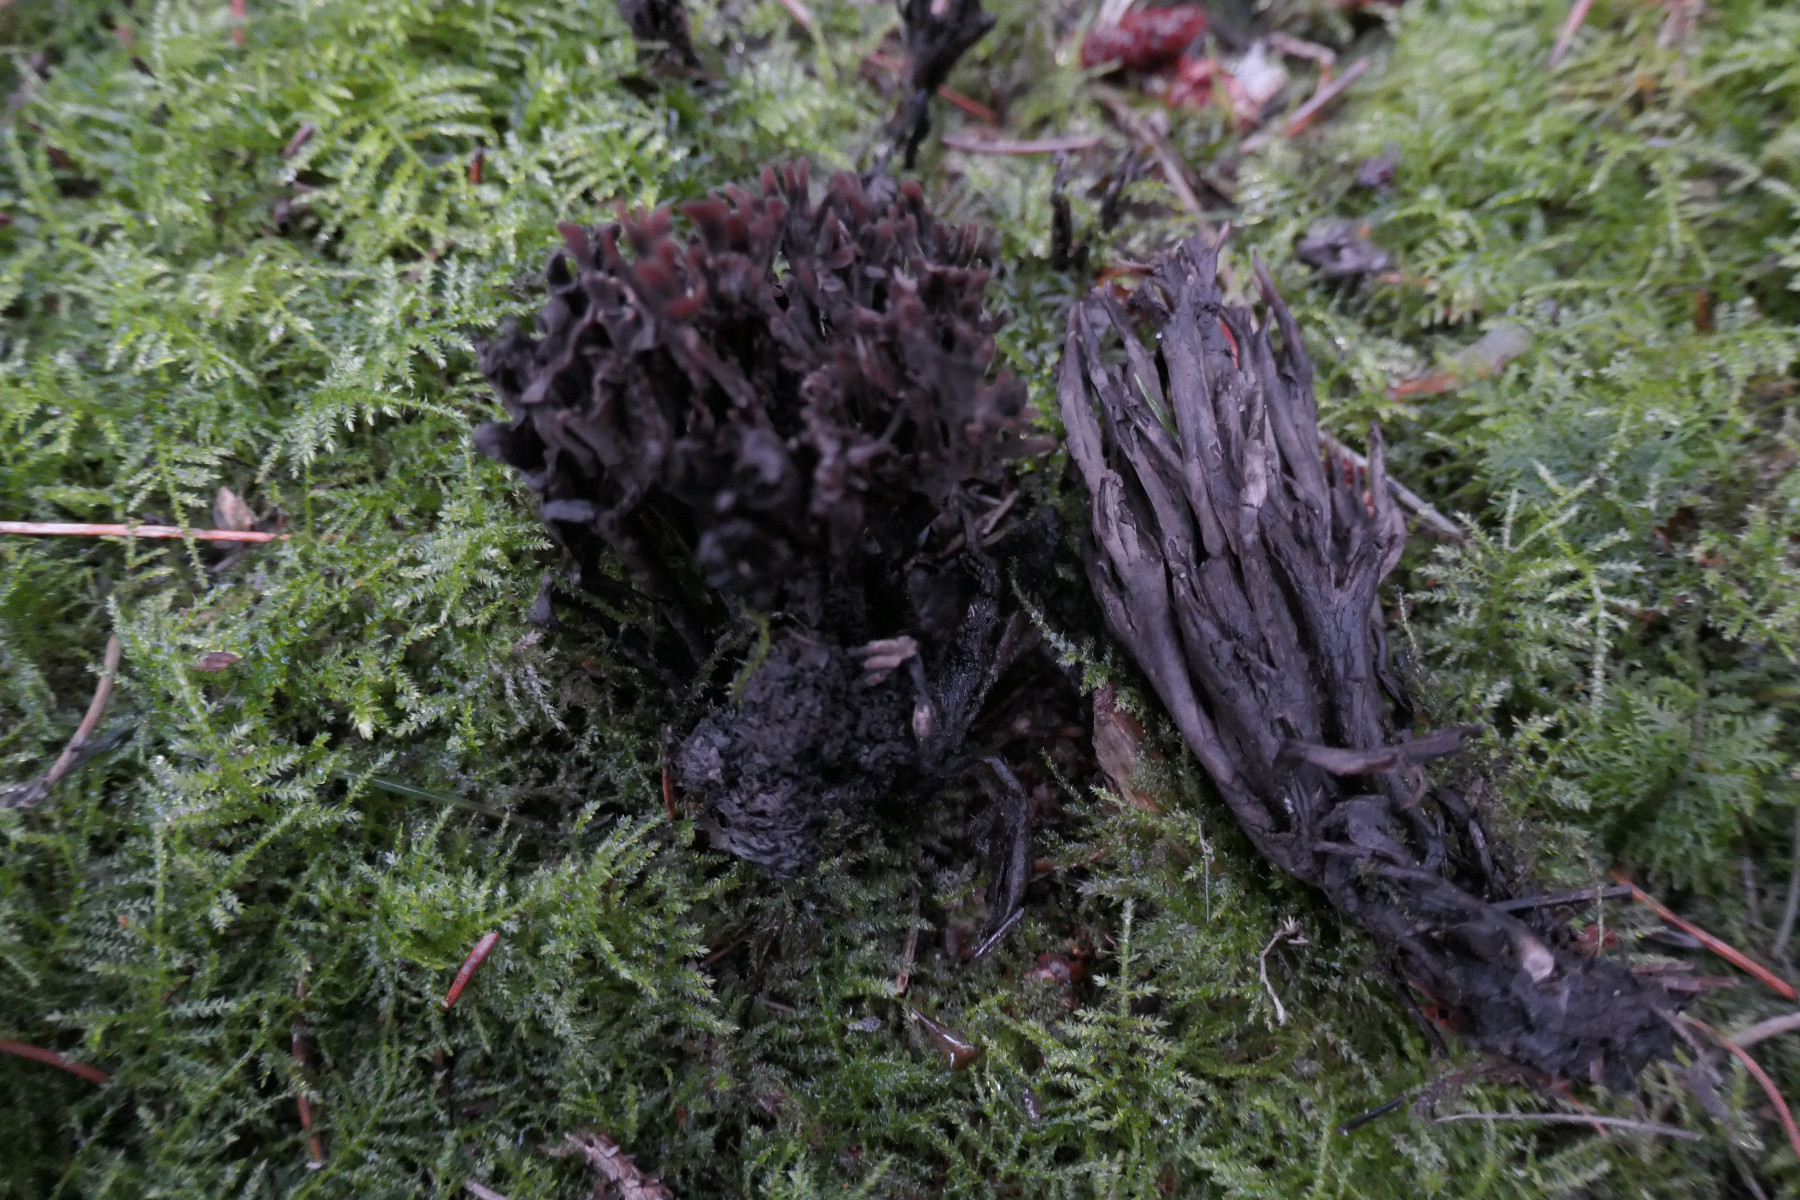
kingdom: Fungi
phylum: Basidiomycota
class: Agaricomycetes
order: Thelephorales
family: Thelephoraceae
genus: Thelephora
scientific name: Thelephora palmata
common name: grenet frynsesvamp
